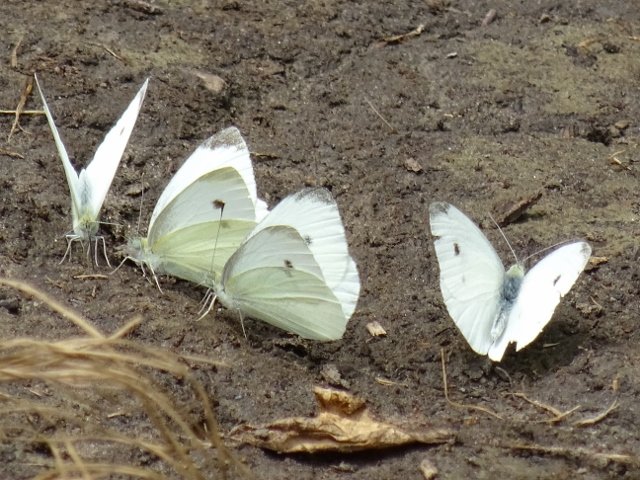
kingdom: Animalia
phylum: Arthropoda
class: Insecta
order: Lepidoptera
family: Pieridae
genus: Pieris
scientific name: Pieris rapae
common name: Cabbage White
